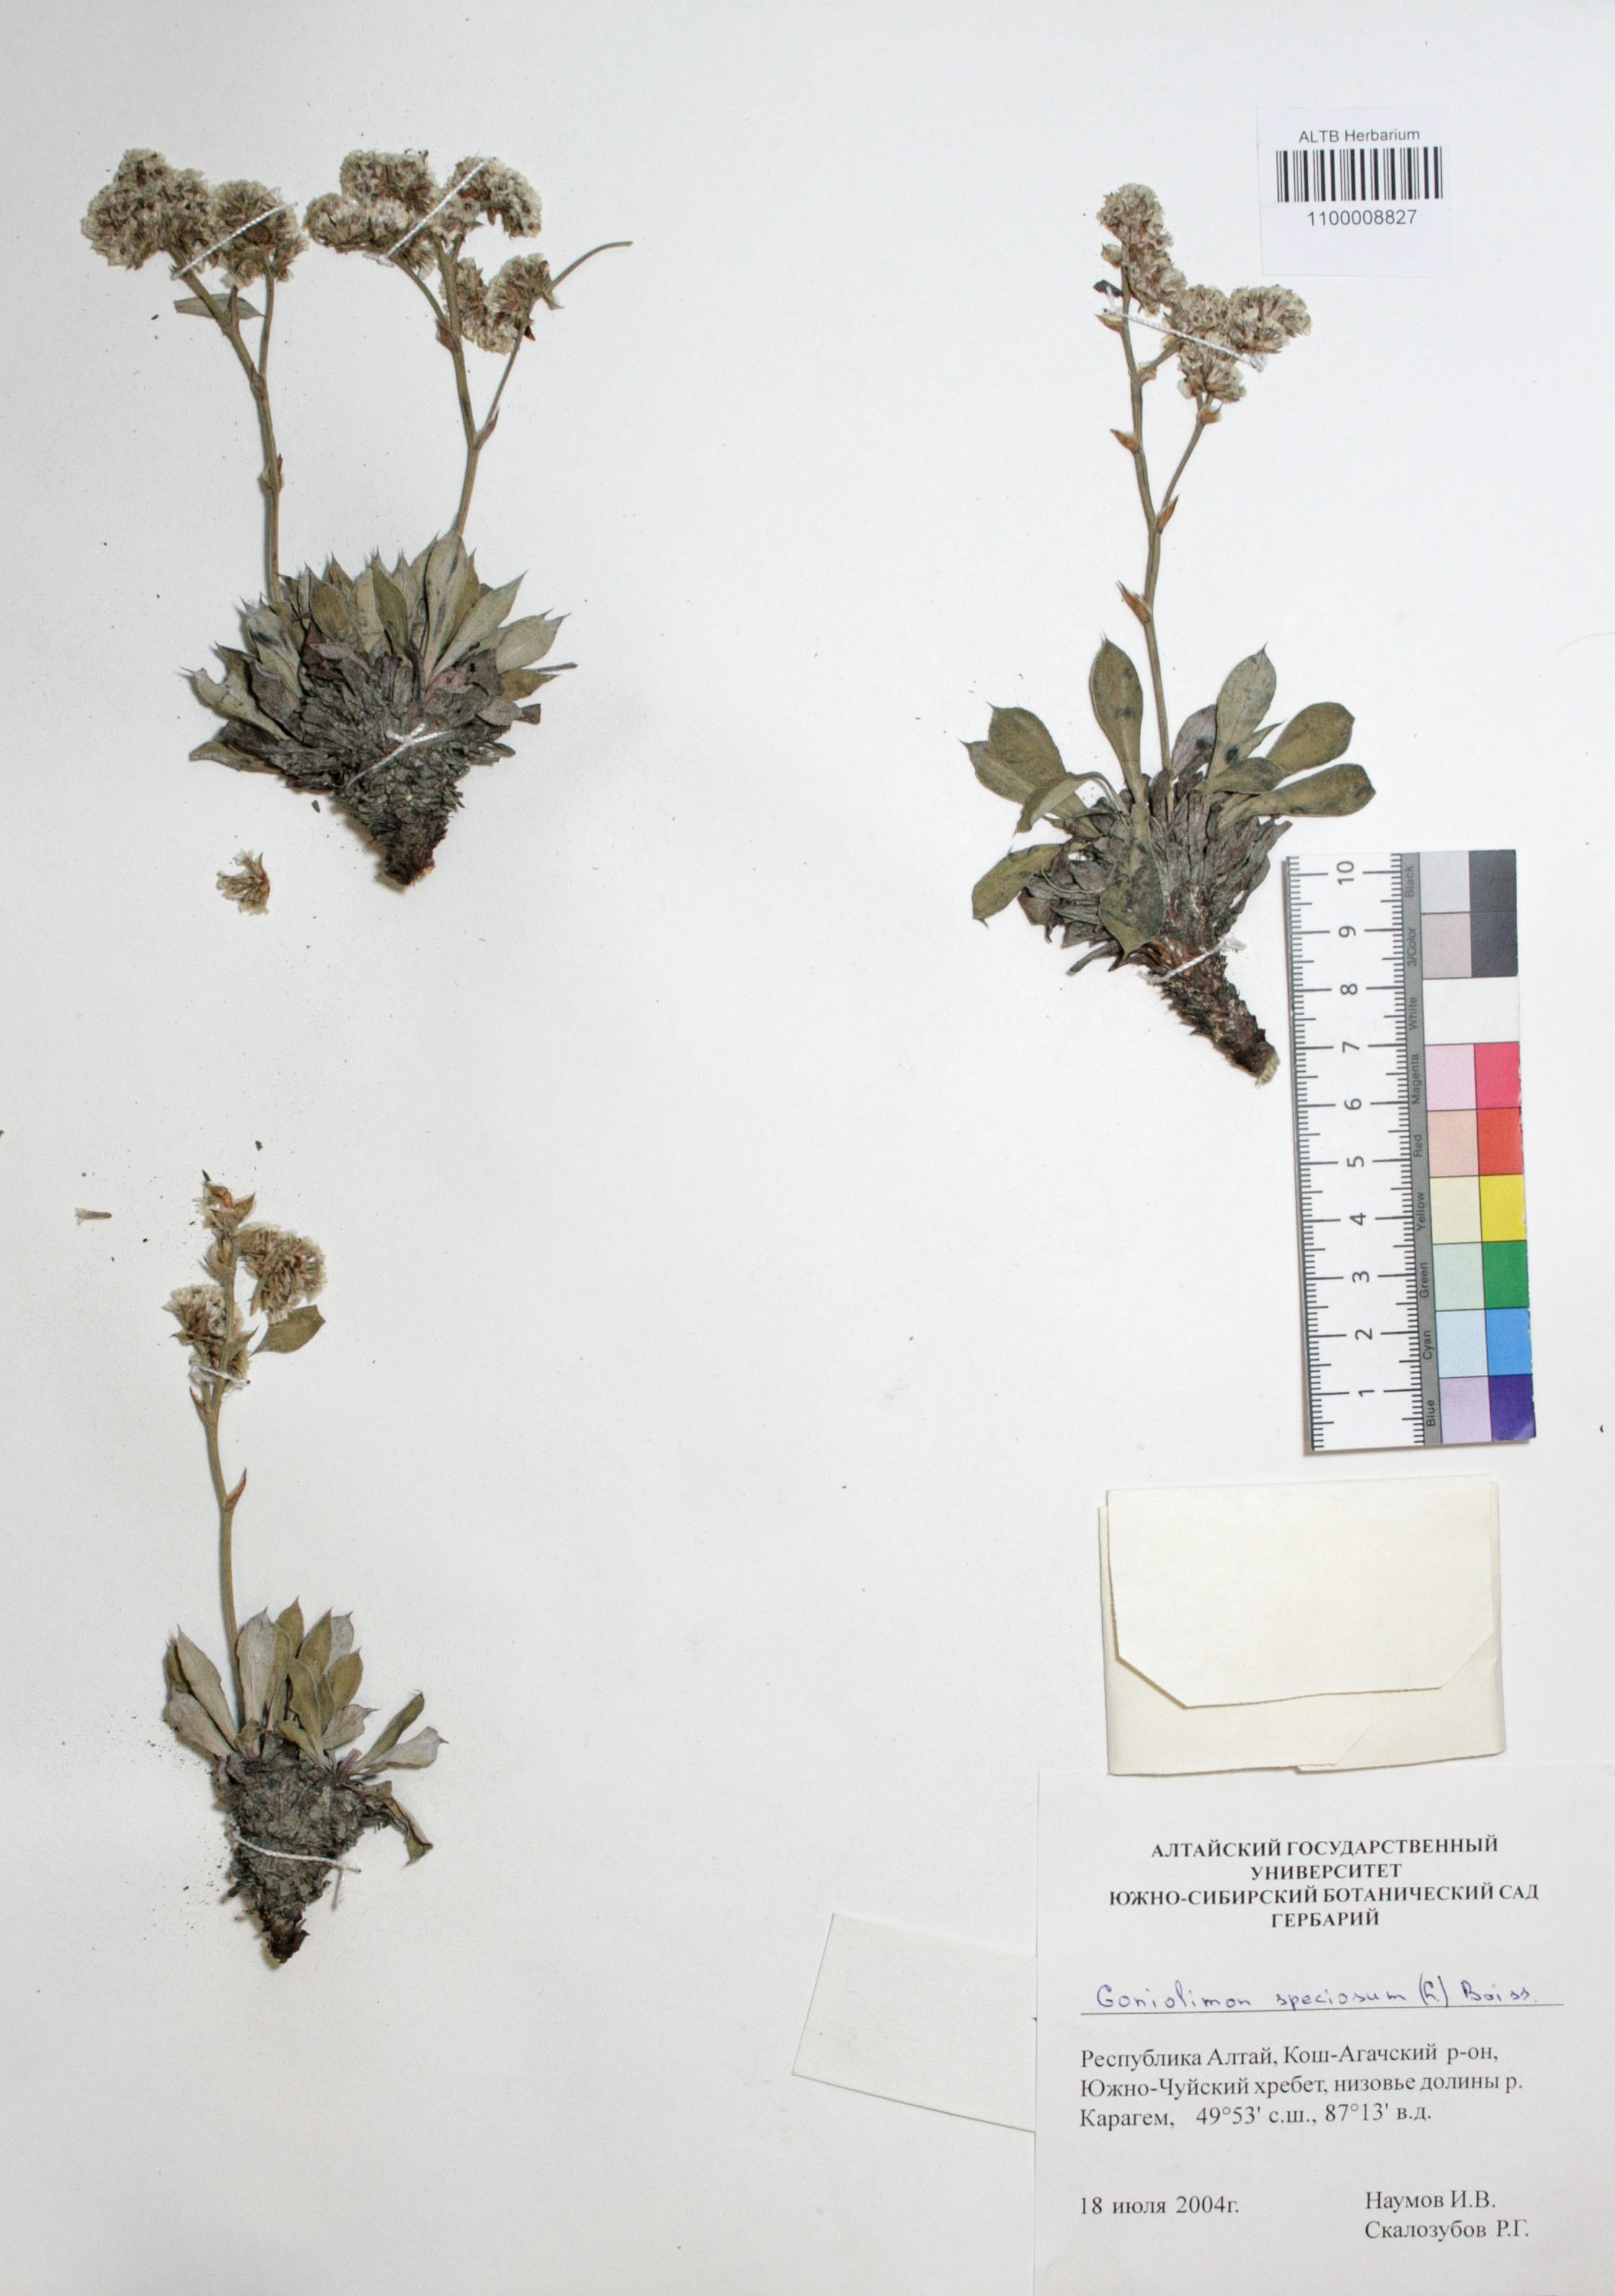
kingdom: Plantae
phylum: Tracheophyta
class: Magnoliopsida
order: Caryophyllales
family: Plumbaginaceae
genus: Goniolimon
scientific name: Goniolimon speciosum
